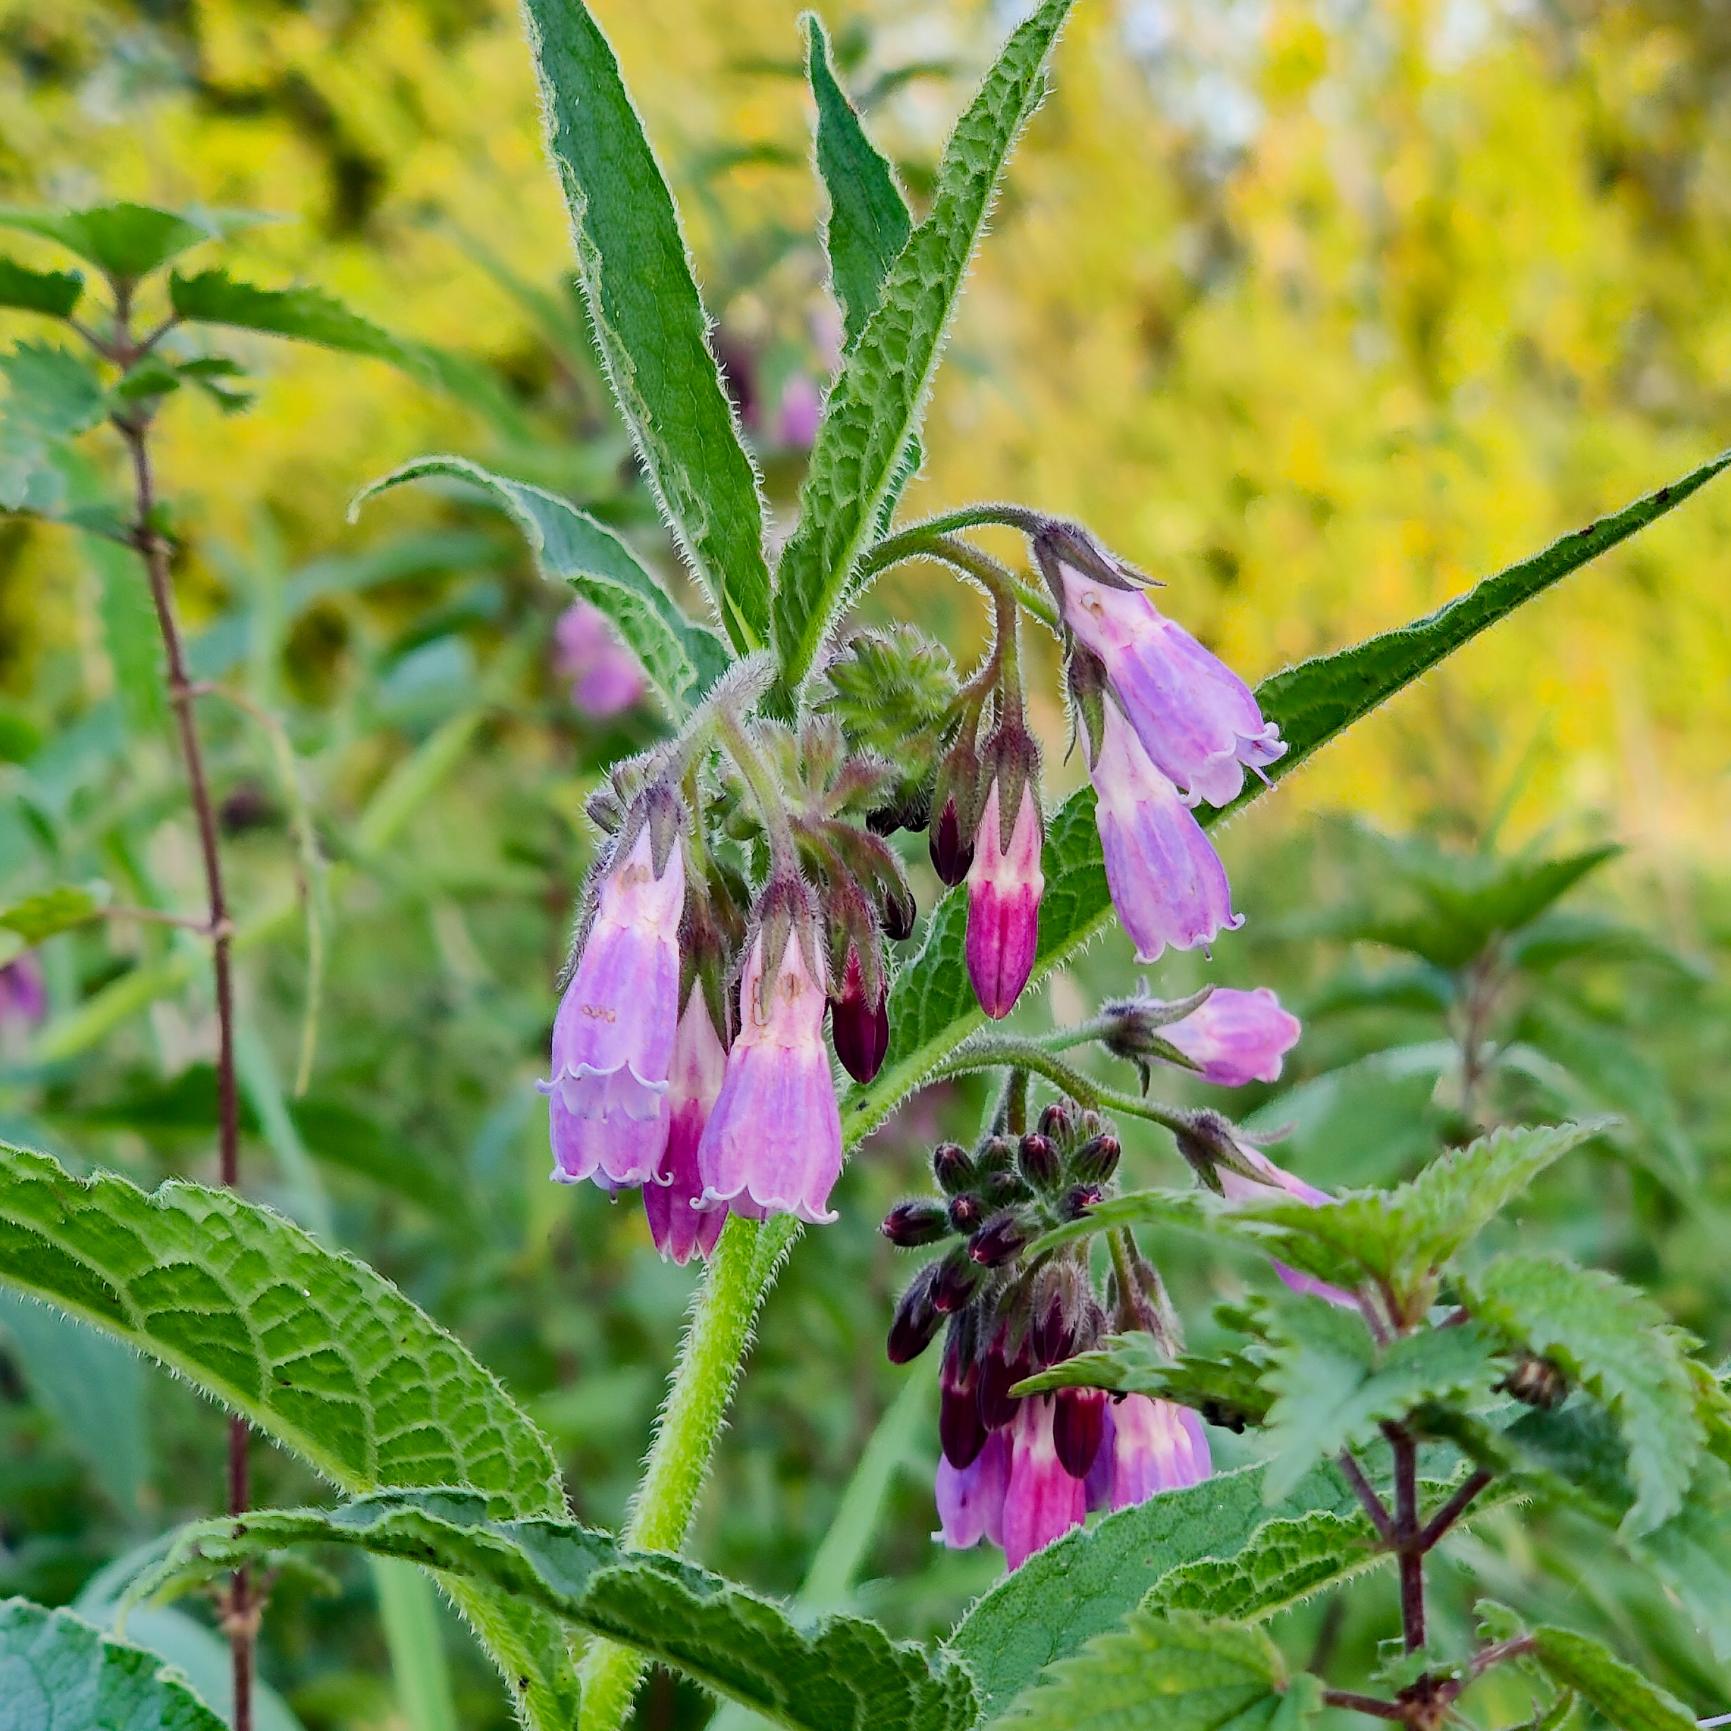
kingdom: Plantae
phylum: Tracheophyta
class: Magnoliopsida
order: Boraginales
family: Boraginaceae
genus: Symphytum
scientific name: Symphytum uplandicum
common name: Foder-kulsukker
